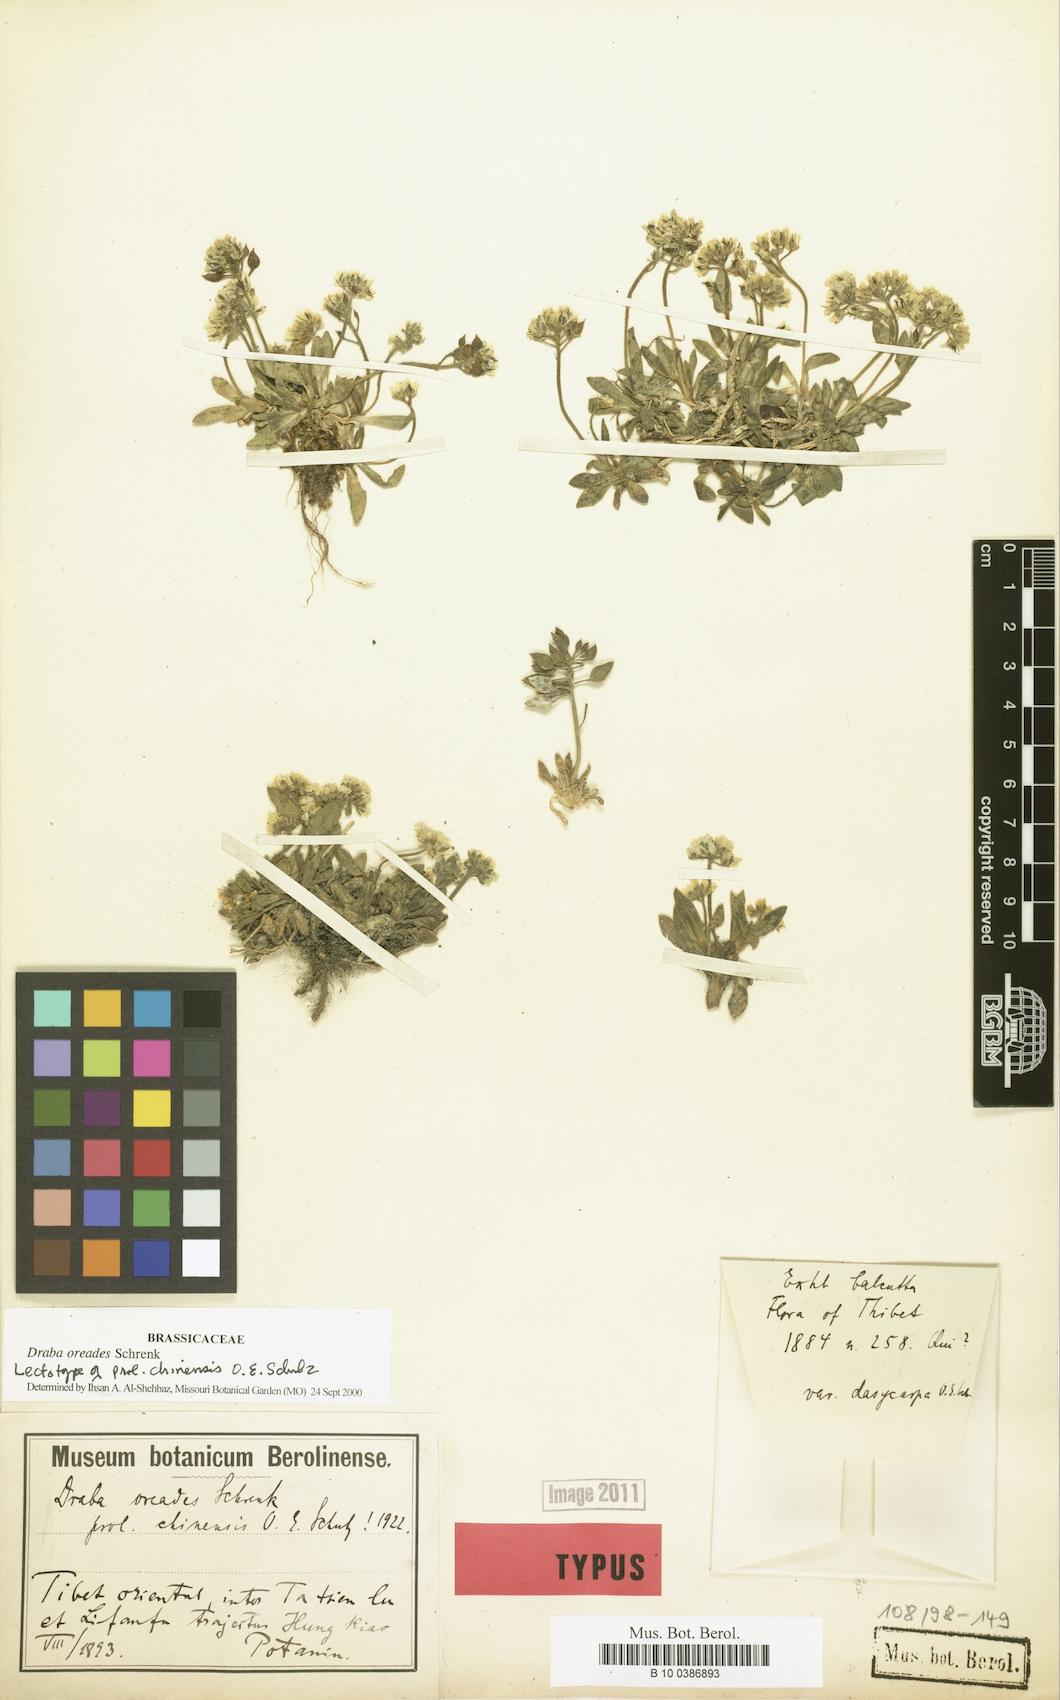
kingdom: Plantae
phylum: Tracheophyta
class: Magnoliopsida
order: Brassicales
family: Brassicaceae
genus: Draba
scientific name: Draba oreades
